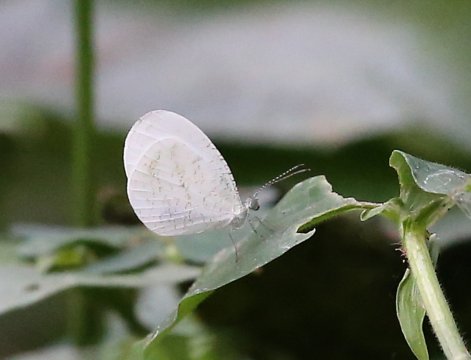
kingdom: Animalia
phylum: Arthropoda
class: Insecta
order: Lepidoptera
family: Pieridae
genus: Leptosia
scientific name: Leptosia alcesta
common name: African Wood White
